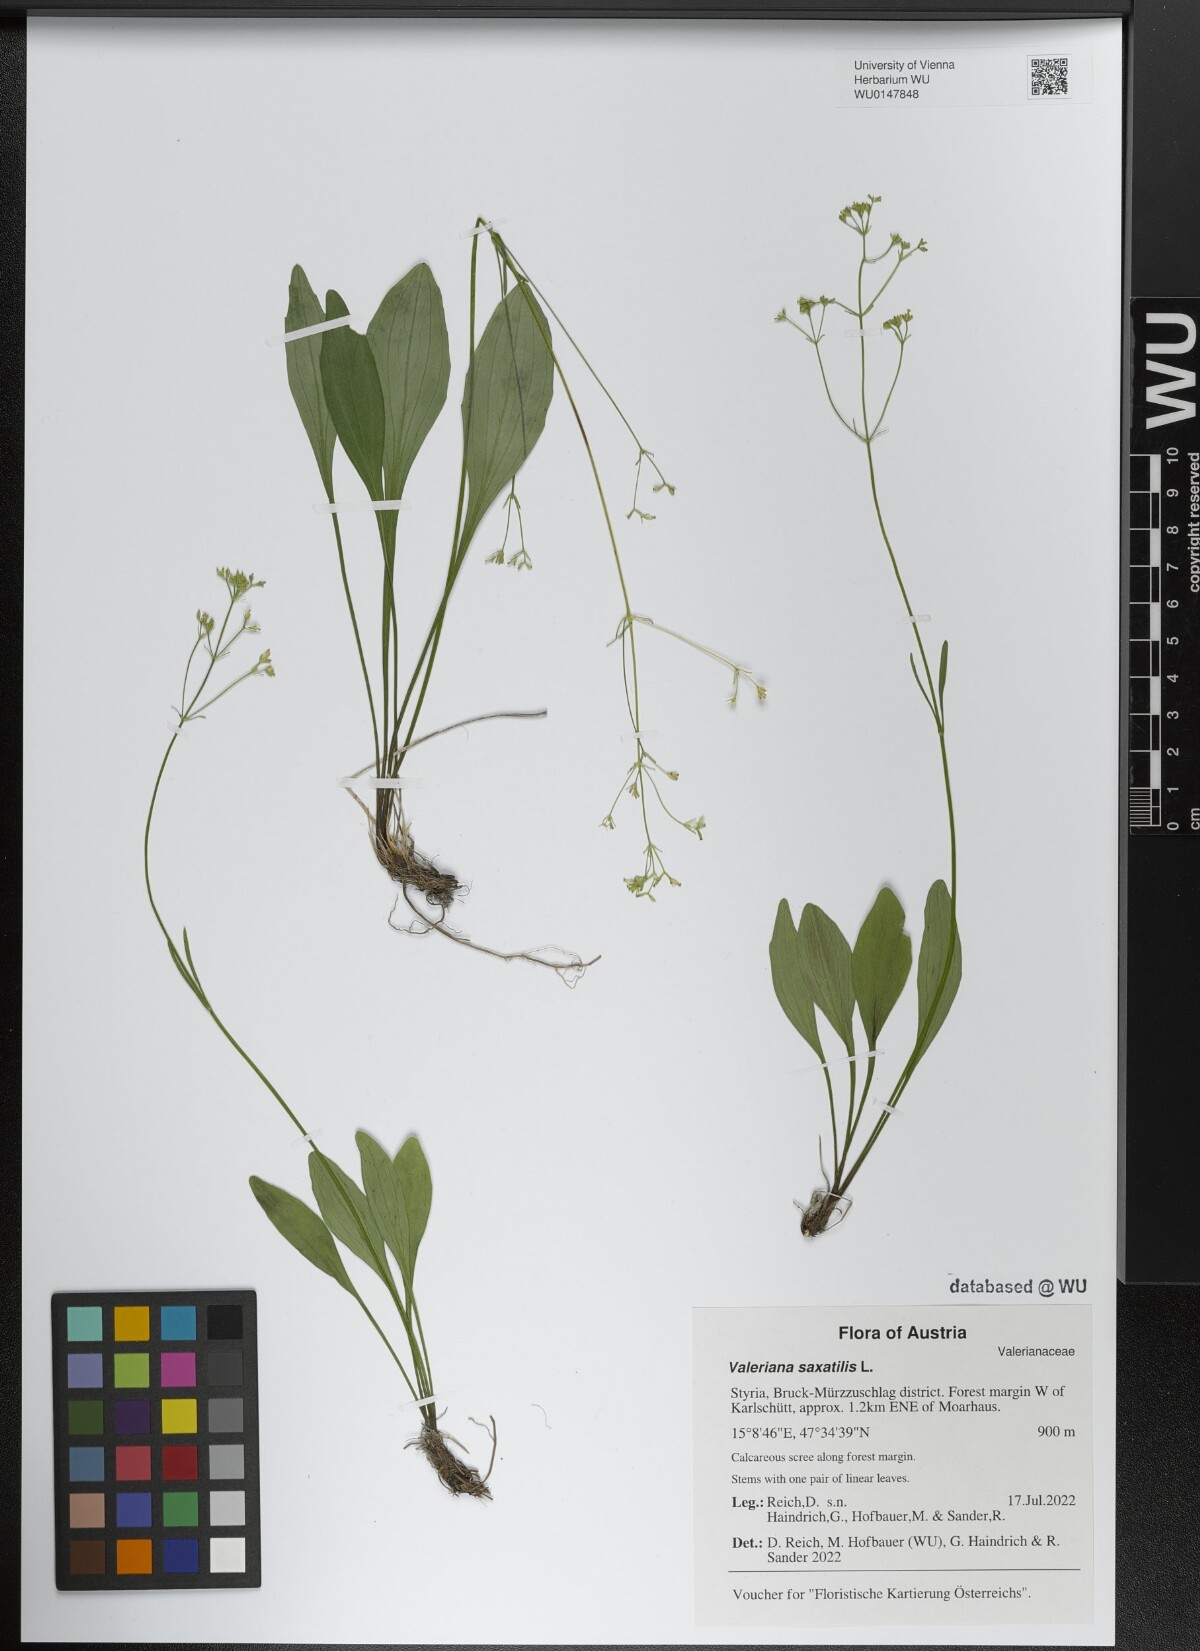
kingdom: Plantae
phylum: Tracheophyta
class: Magnoliopsida
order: Dipsacales
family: Caprifoliaceae
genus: Valeriana
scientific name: Valeriana saxatilis
